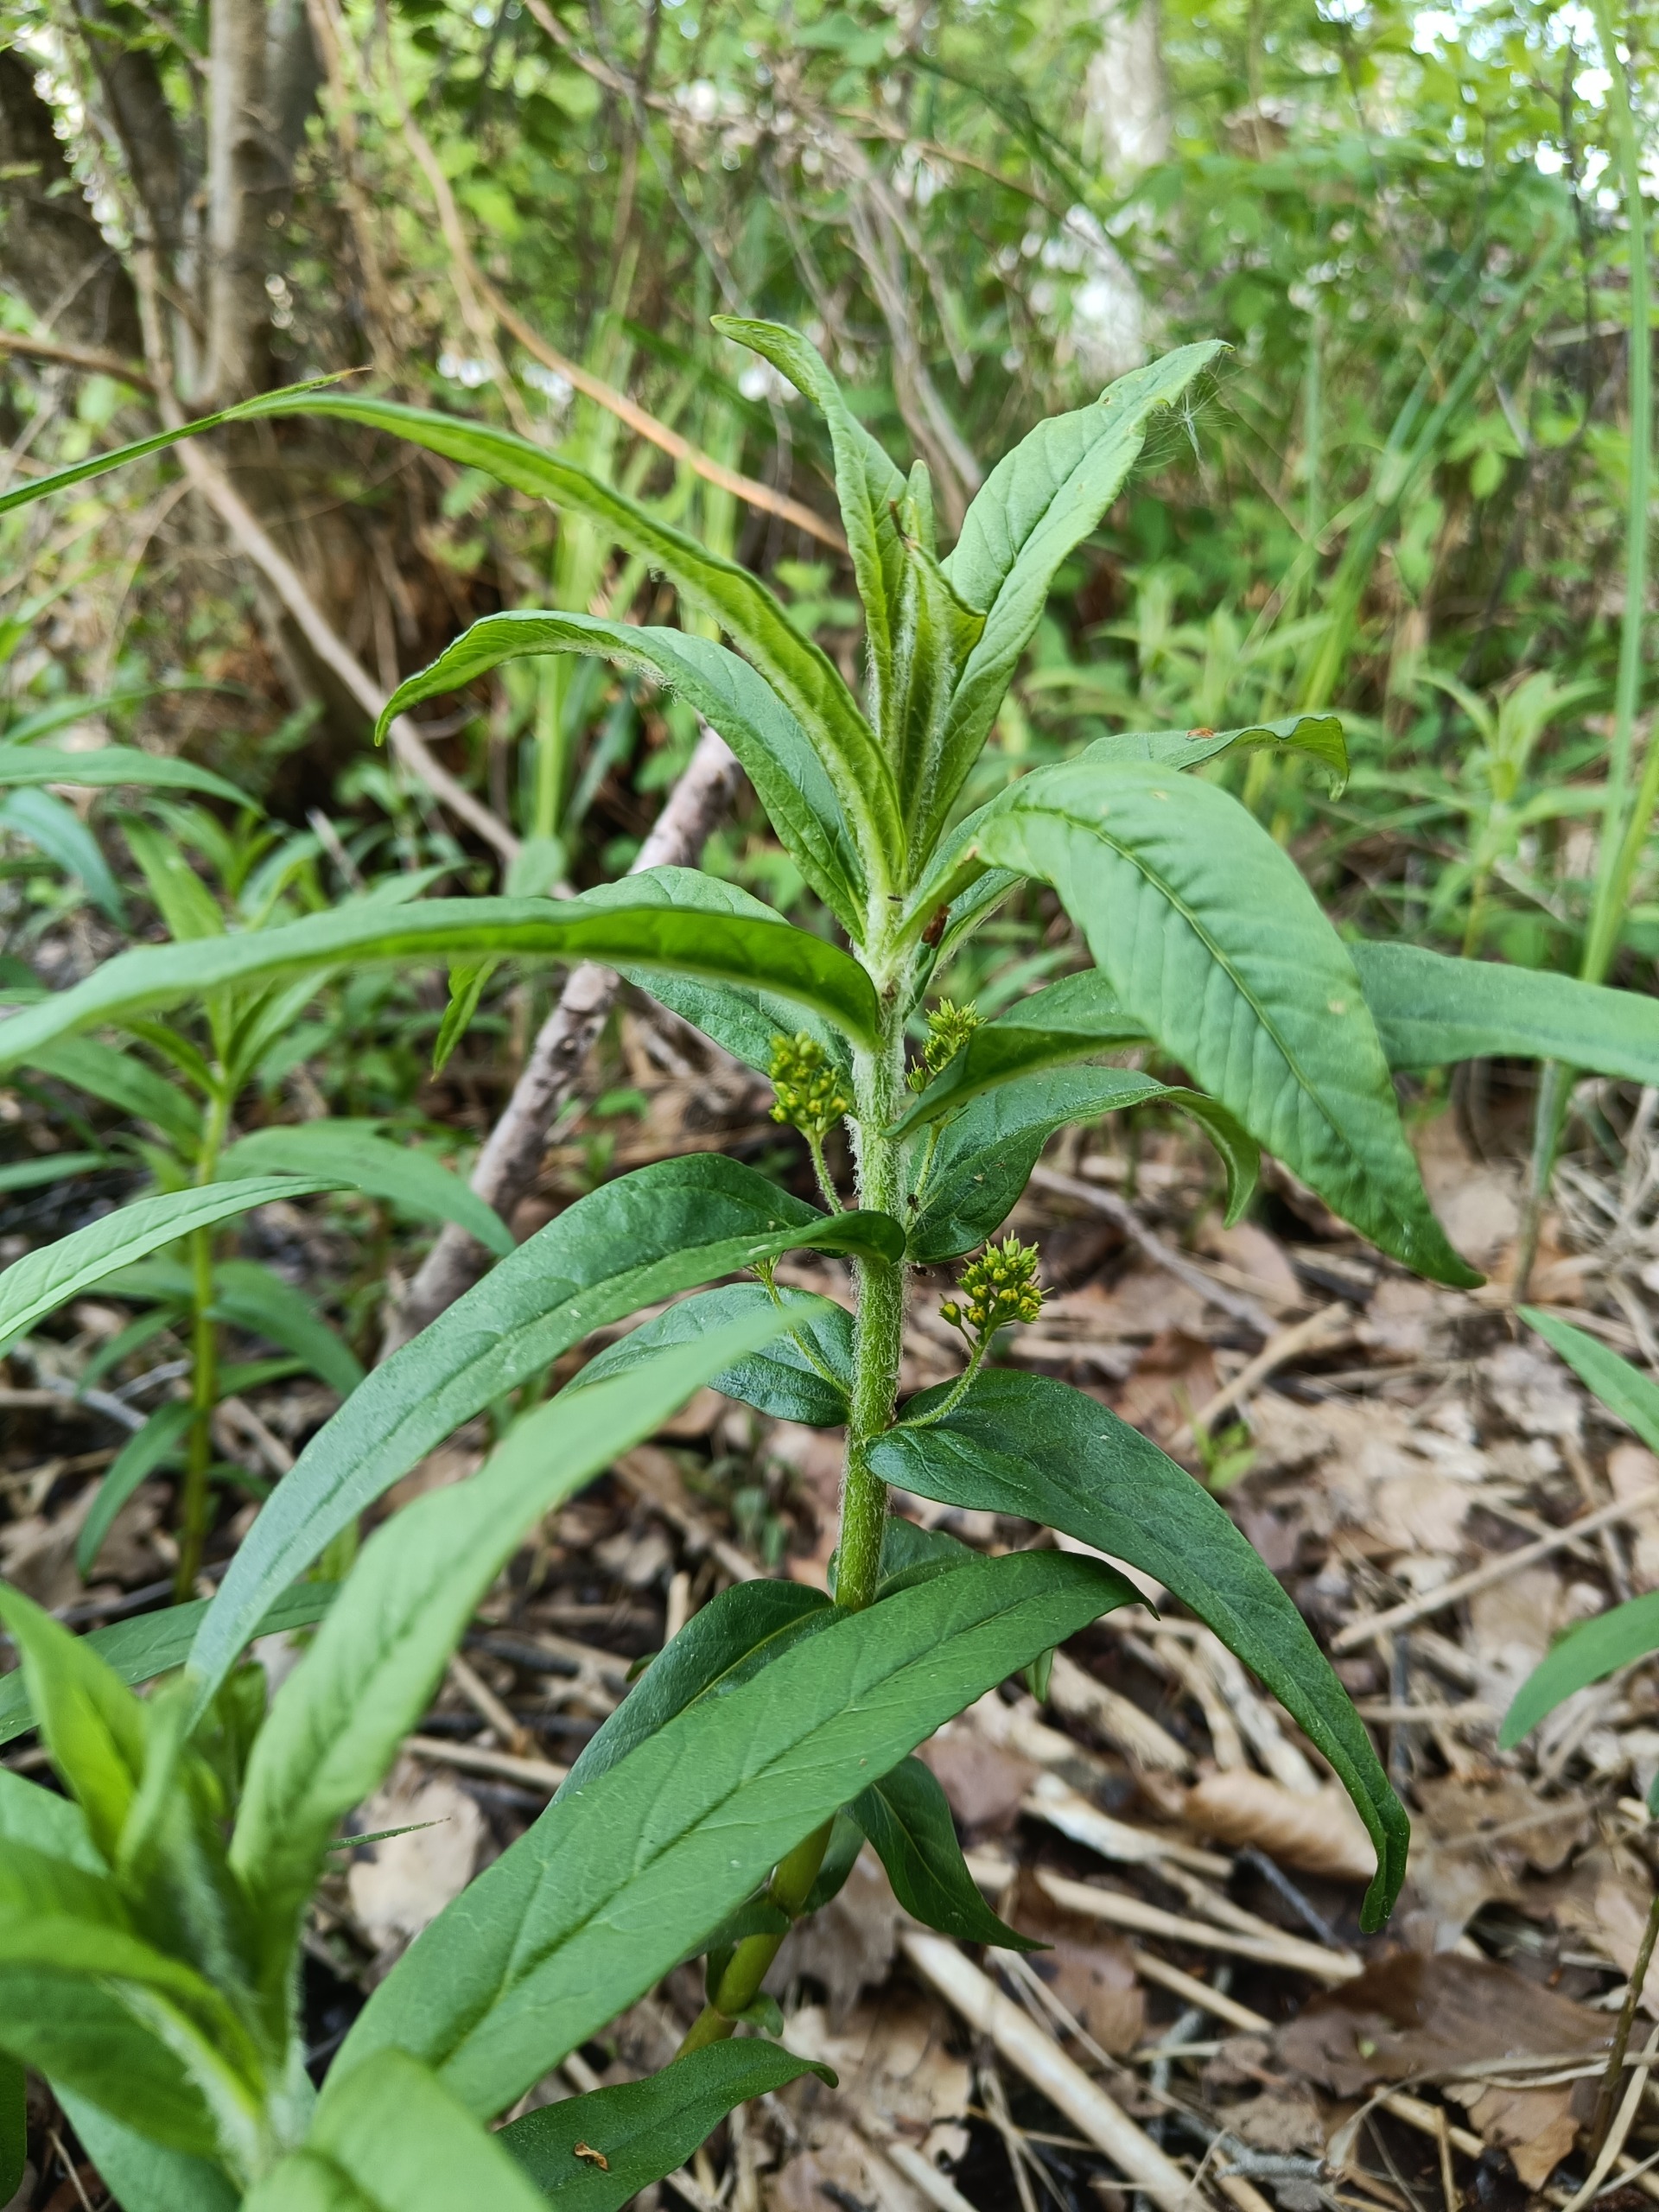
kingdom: Plantae
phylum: Tracheophyta
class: Magnoliopsida
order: Ericales
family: Primulaceae
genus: Lysimachia
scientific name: Lysimachia thyrsiflora
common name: Dusk-fredløs
